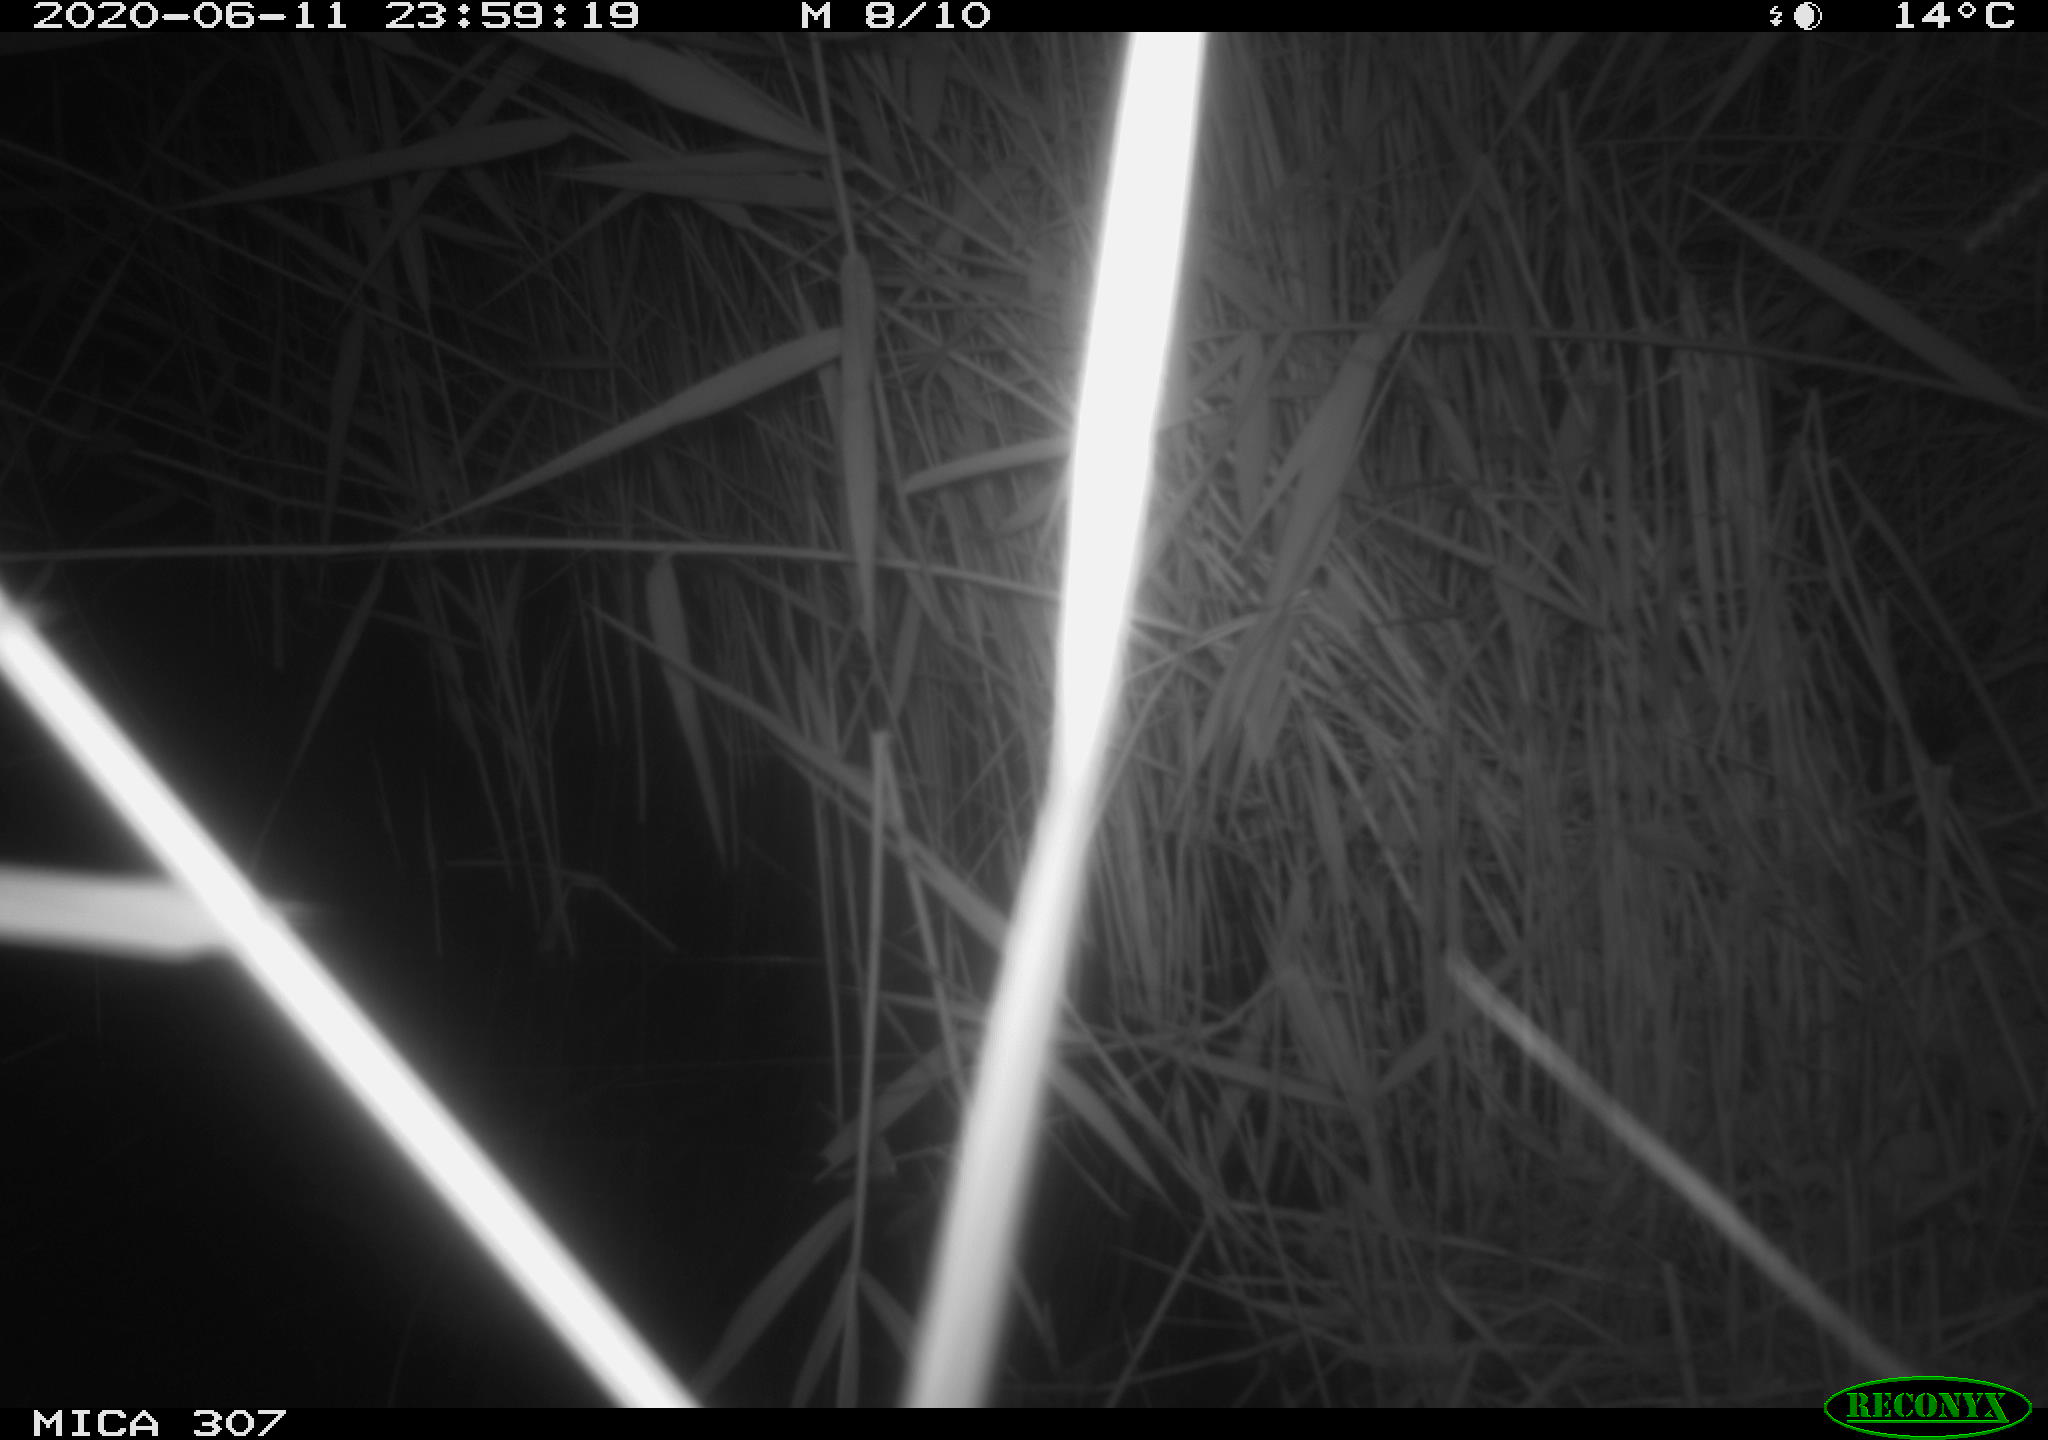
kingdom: Animalia
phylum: Chordata
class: Mammalia
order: Rodentia
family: Muridae
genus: Rattus
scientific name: Rattus norvegicus
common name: Brown rat
